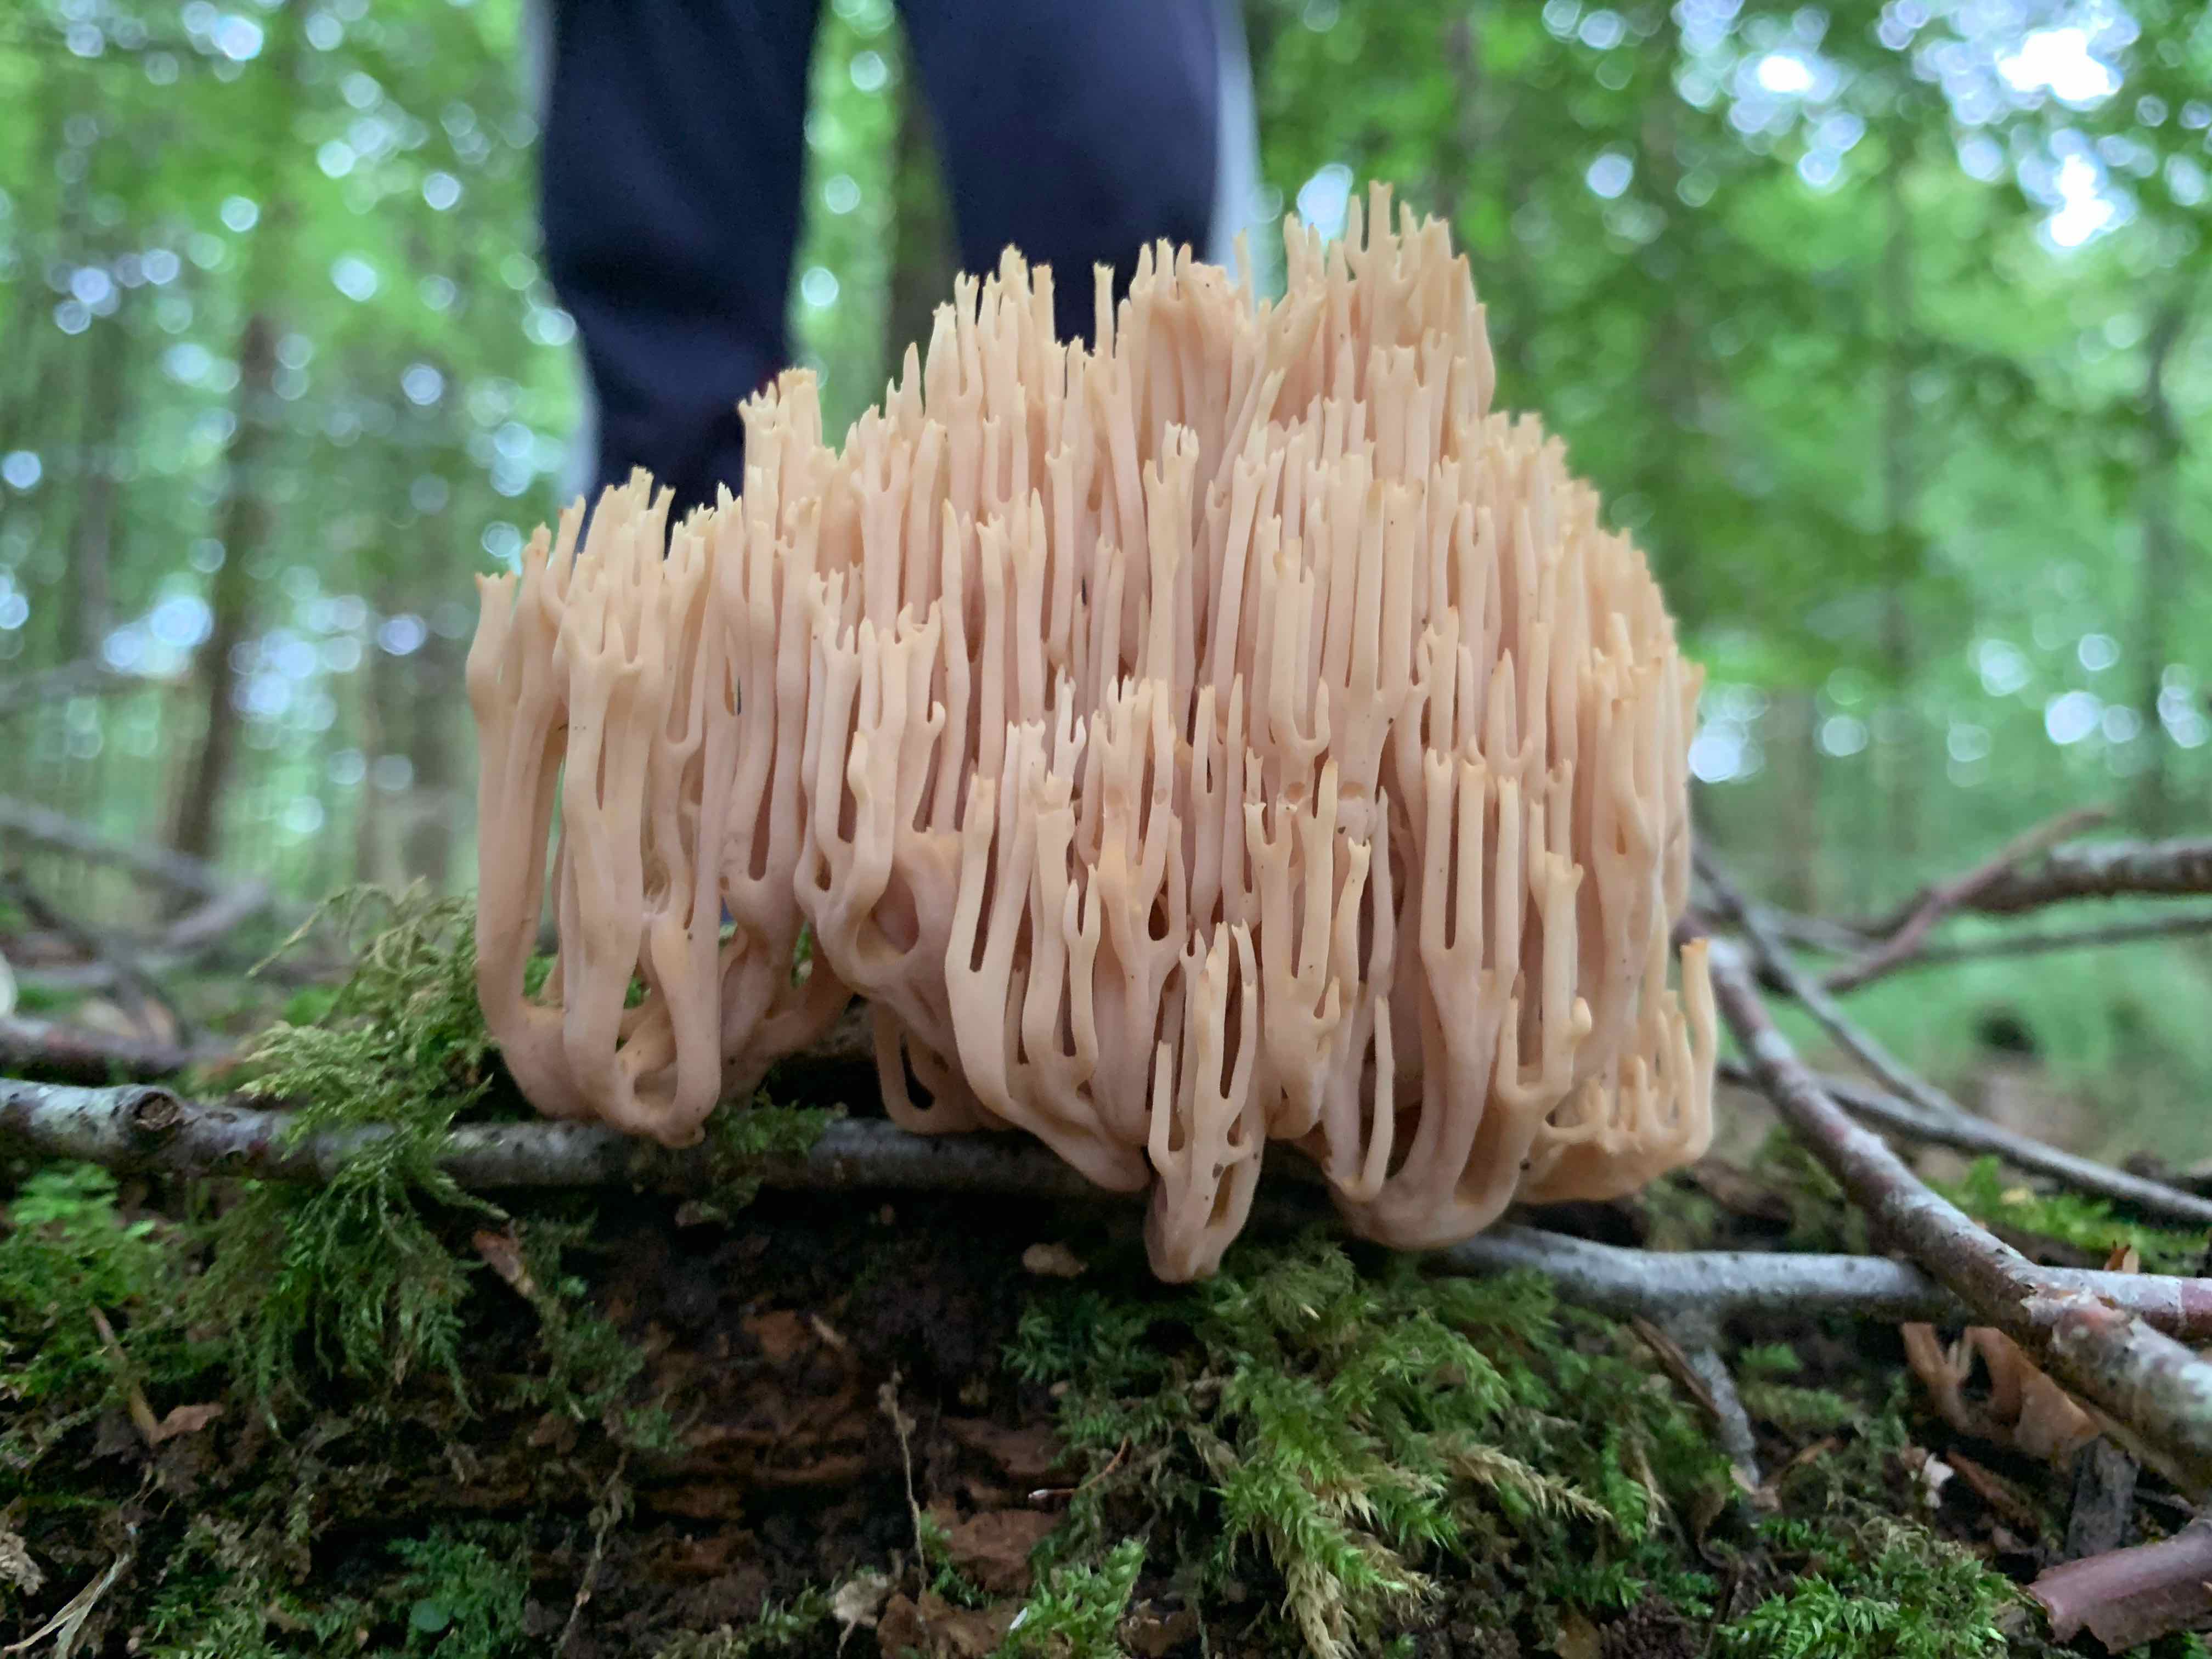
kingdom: Fungi
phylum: Basidiomycota
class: Agaricomycetes
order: Gomphales
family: Gomphaceae
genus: Ramaria
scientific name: Ramaria stricta
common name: rank koralsvamp
